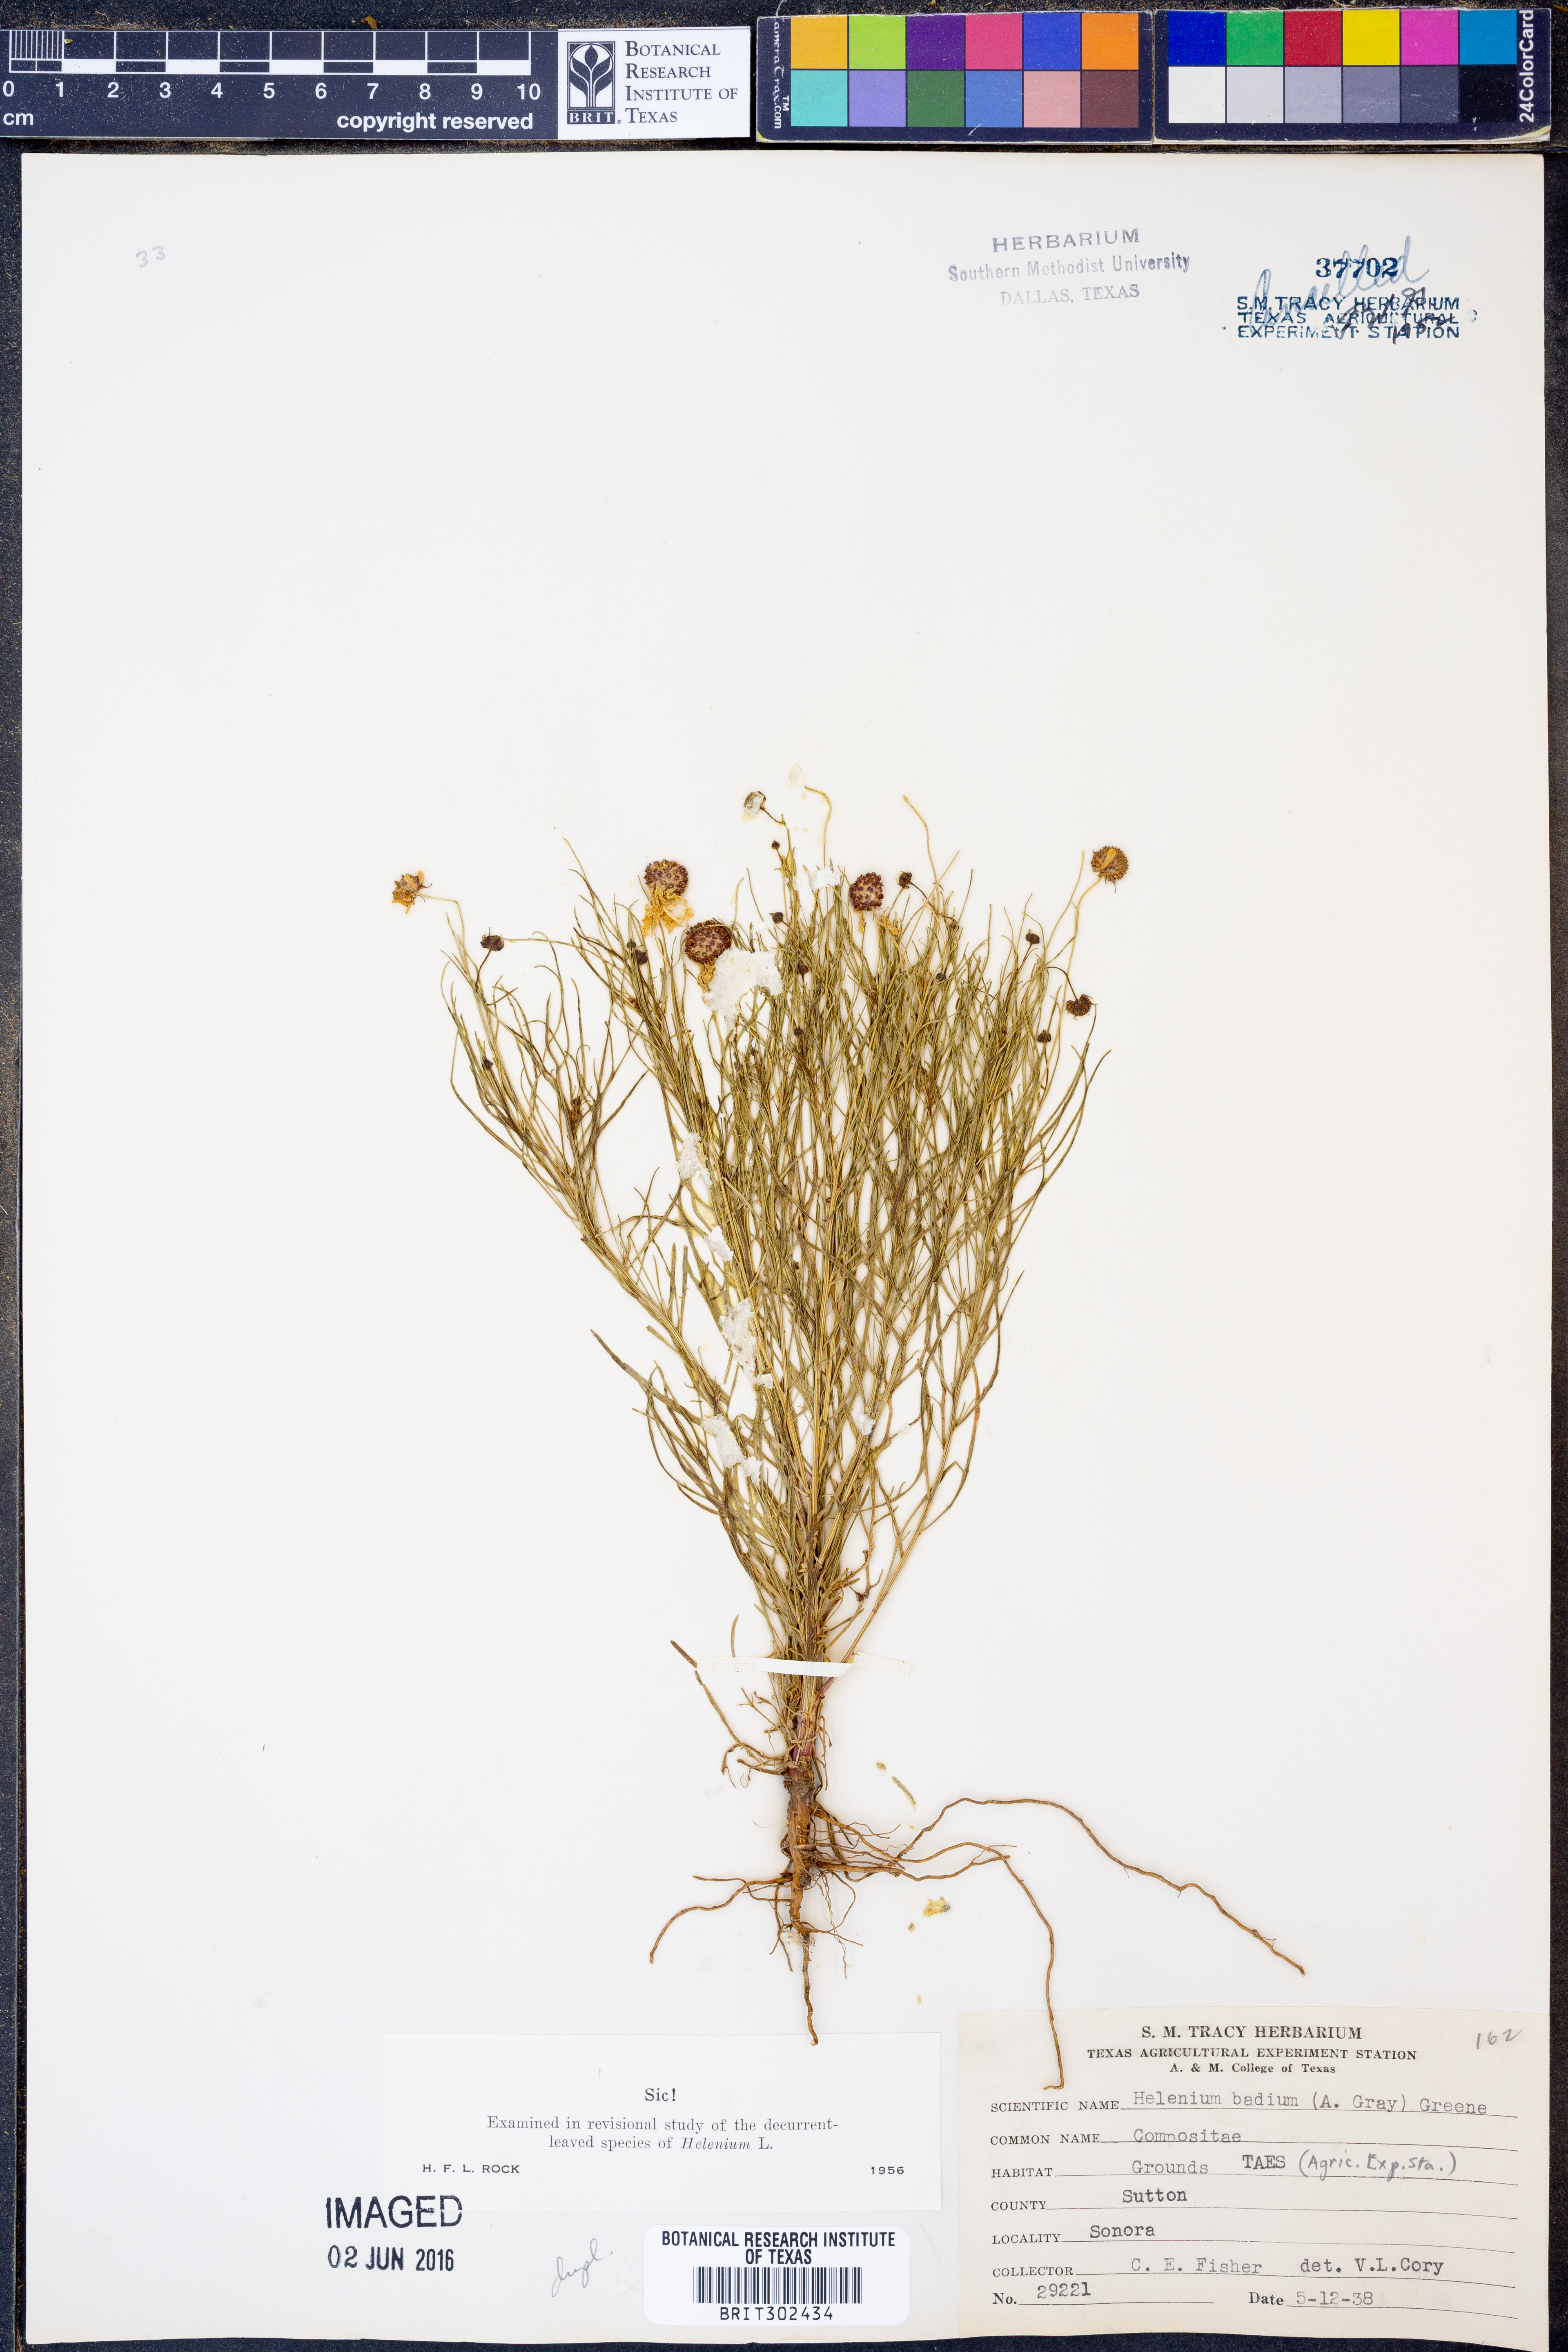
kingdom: Plantae
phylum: Tracheophyta
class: Magnoliopsida
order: Asterales
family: Asteraceae
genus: Helenium
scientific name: Helenium amarum
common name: Bitter sneezeweed
